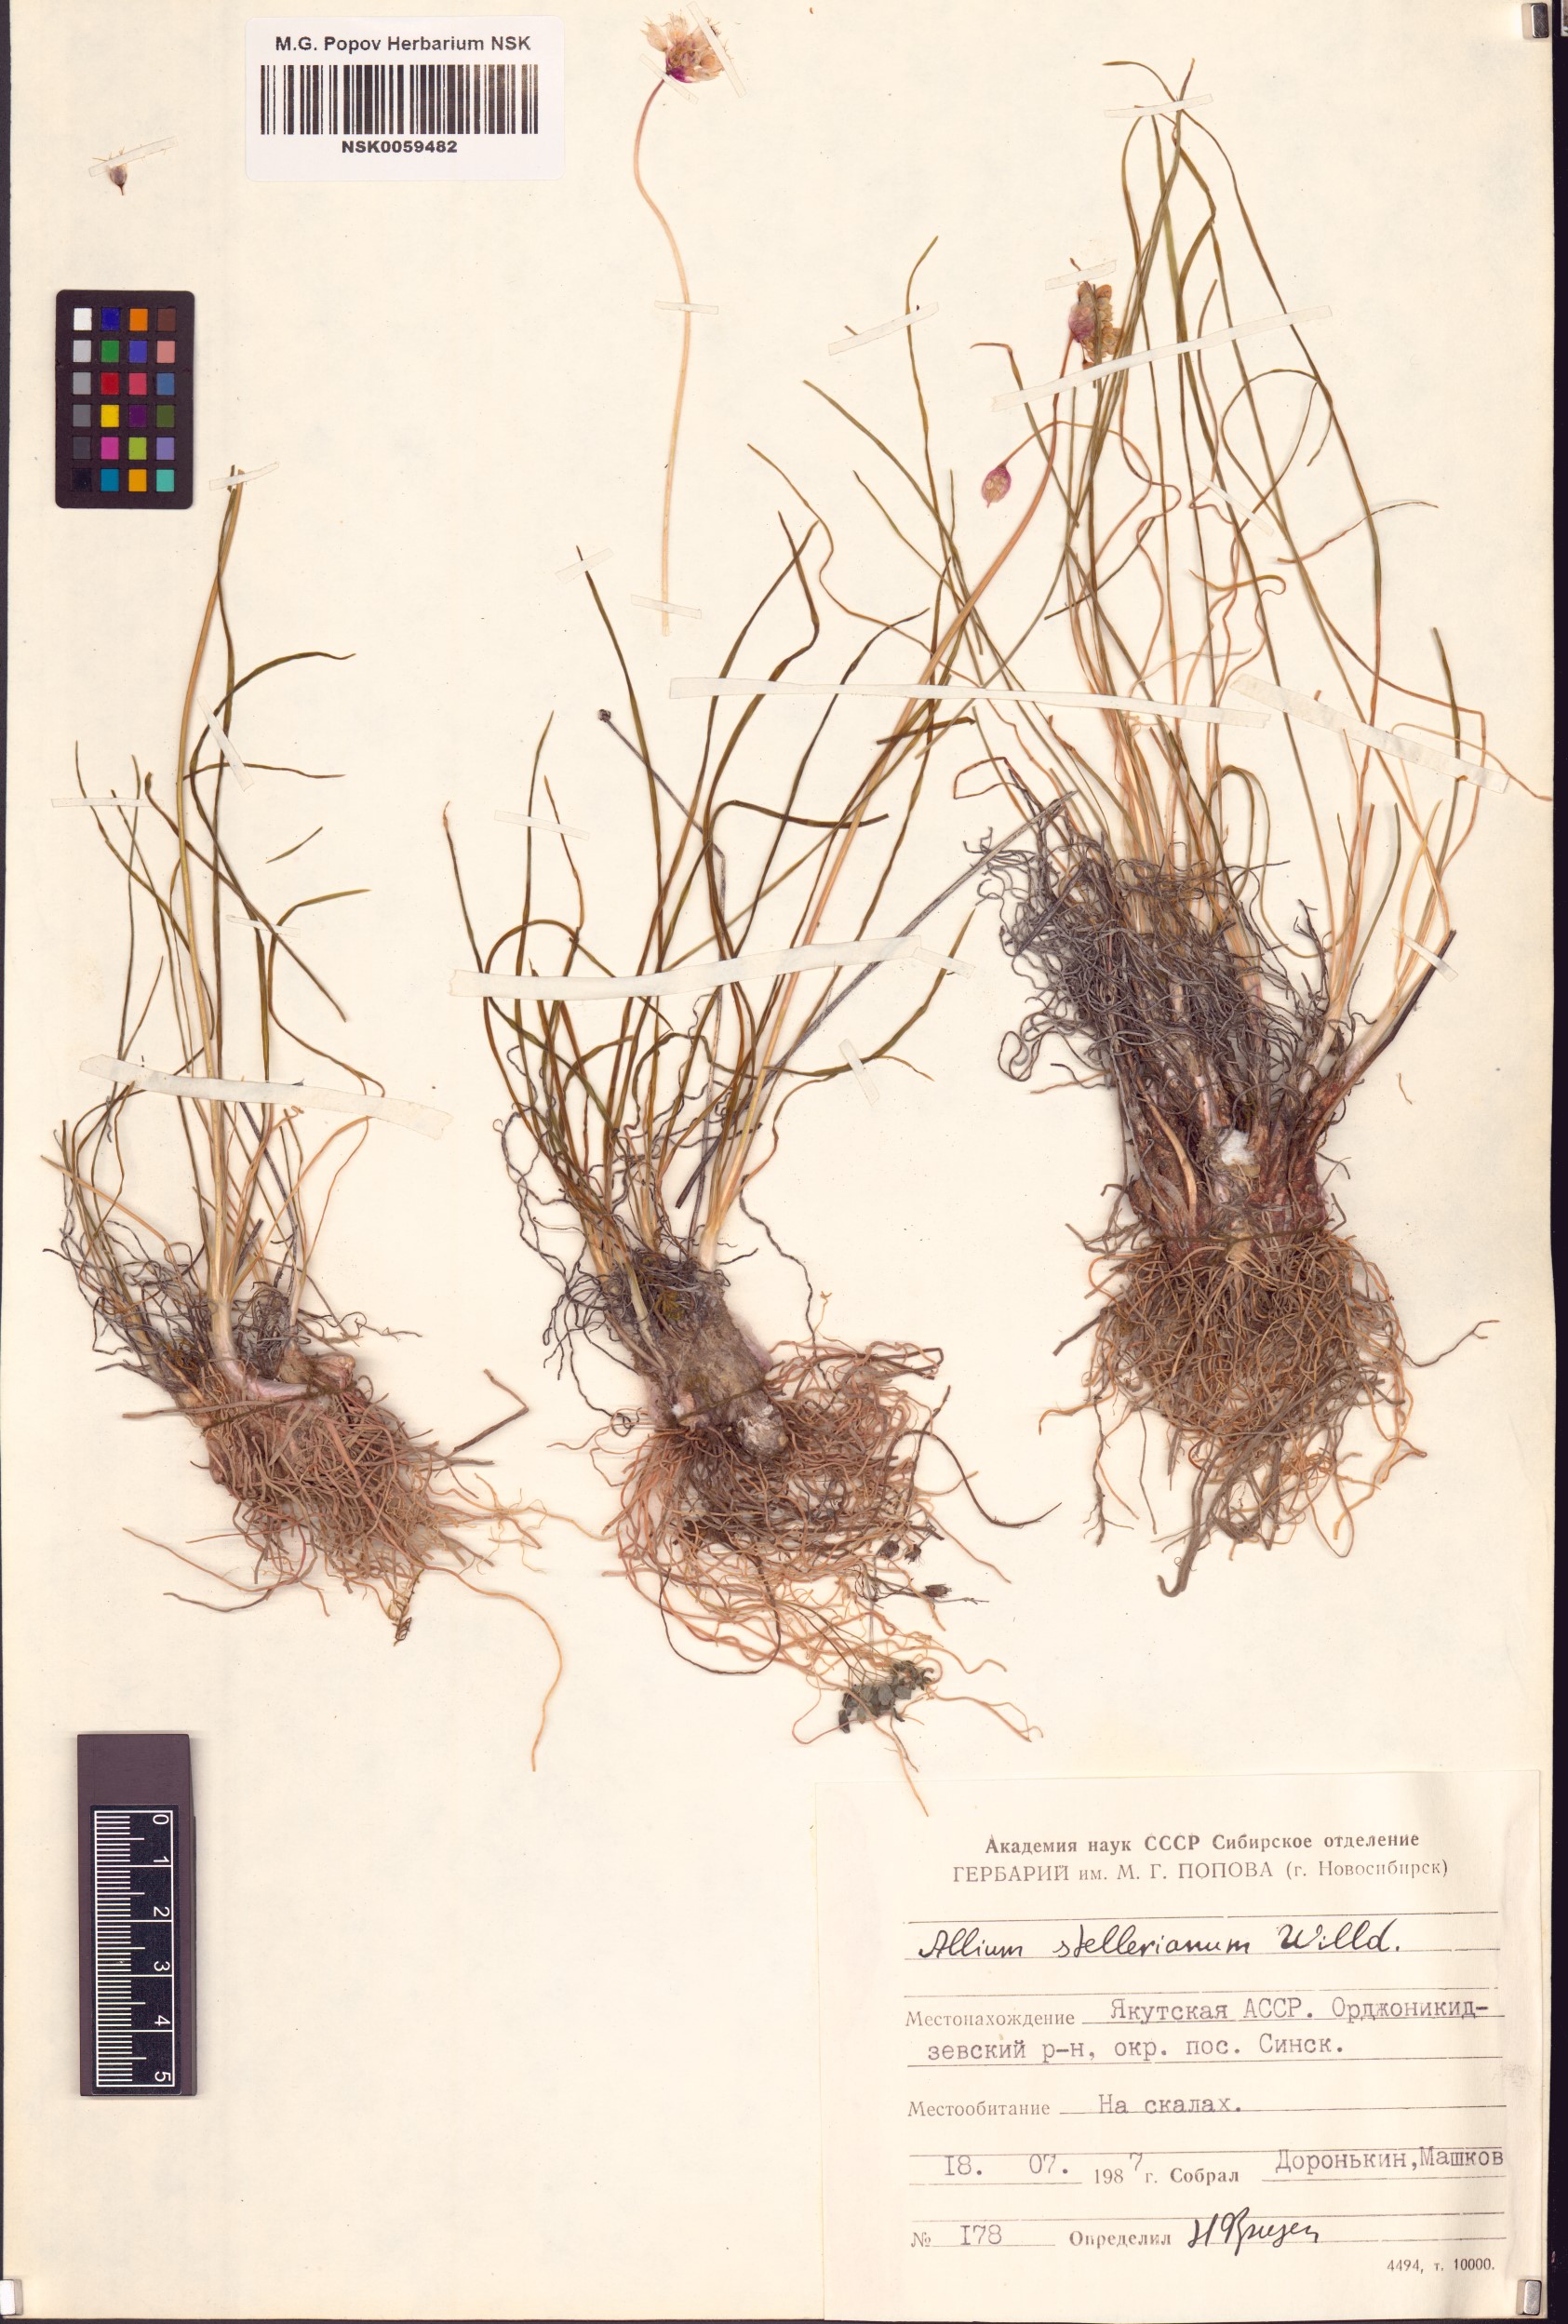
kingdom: Plantae
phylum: Tracheophyta
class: Liliopsida
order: Asparagales
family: Amaryllidaceae
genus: Allium
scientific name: Allium stellerianum
